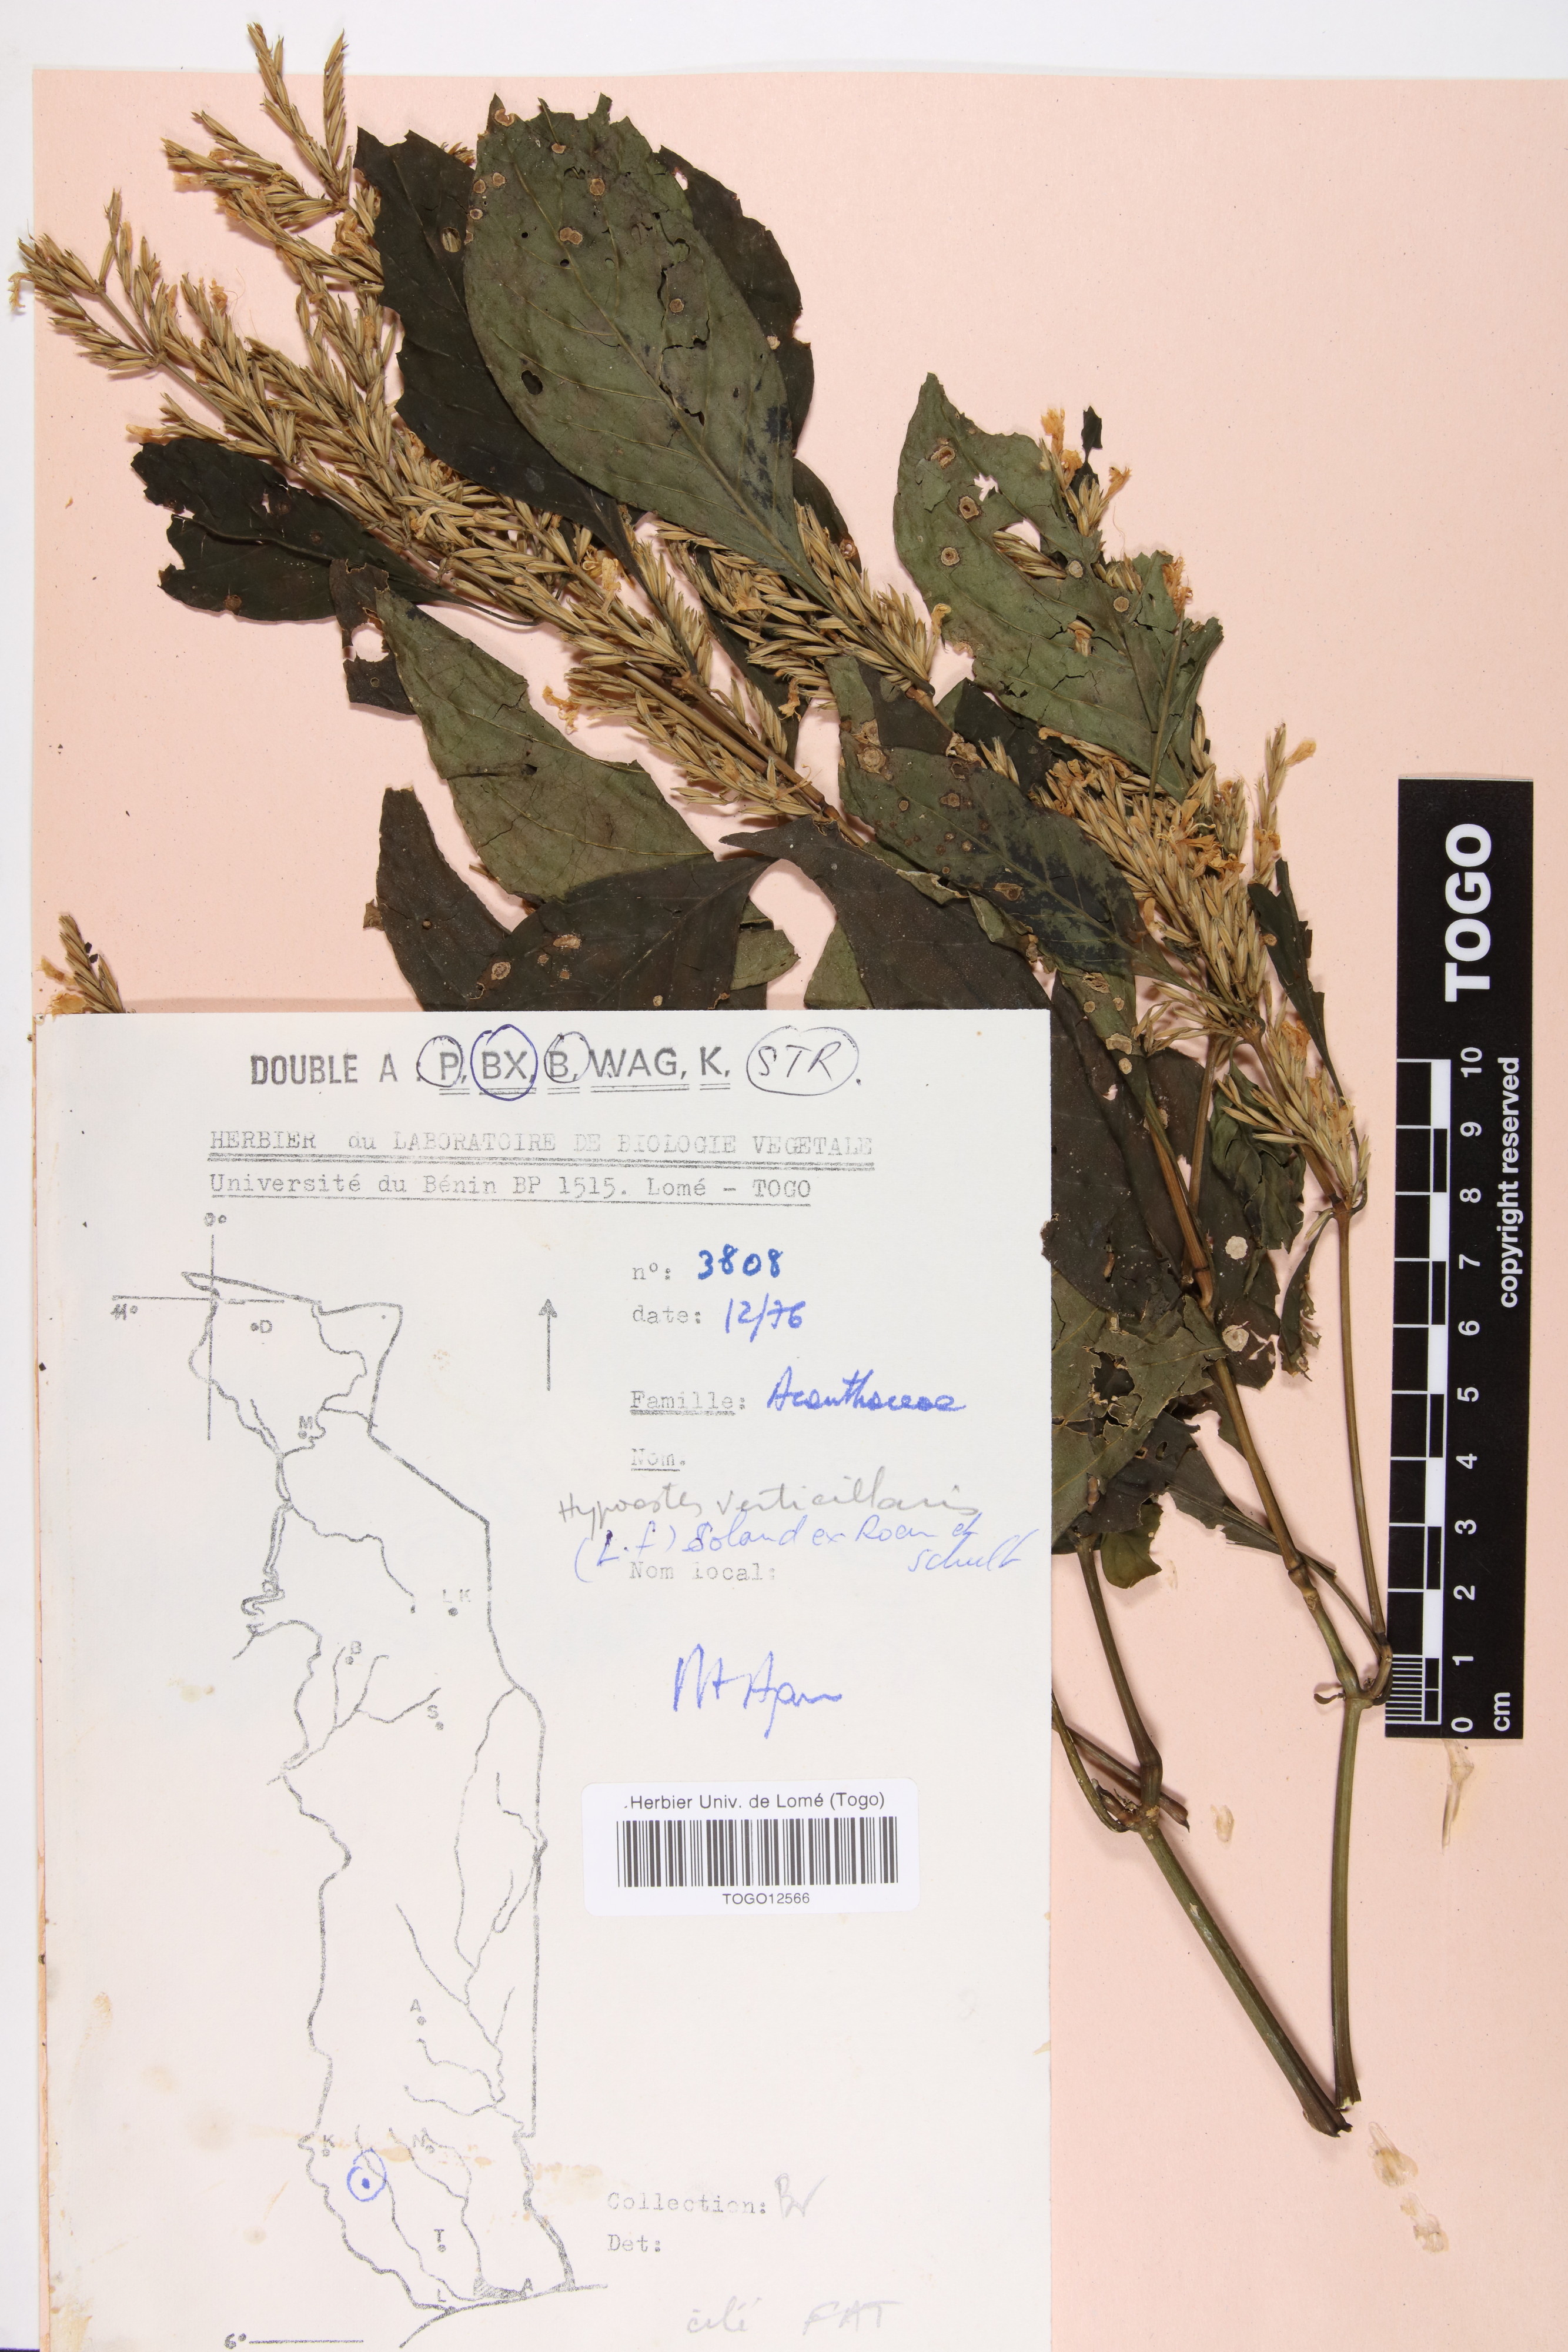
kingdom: Plantae
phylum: Tracheophyta
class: Magnoliopsida
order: Lamiales
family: Acanthaceae
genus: Hypoestes
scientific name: Hypoestes aristata
